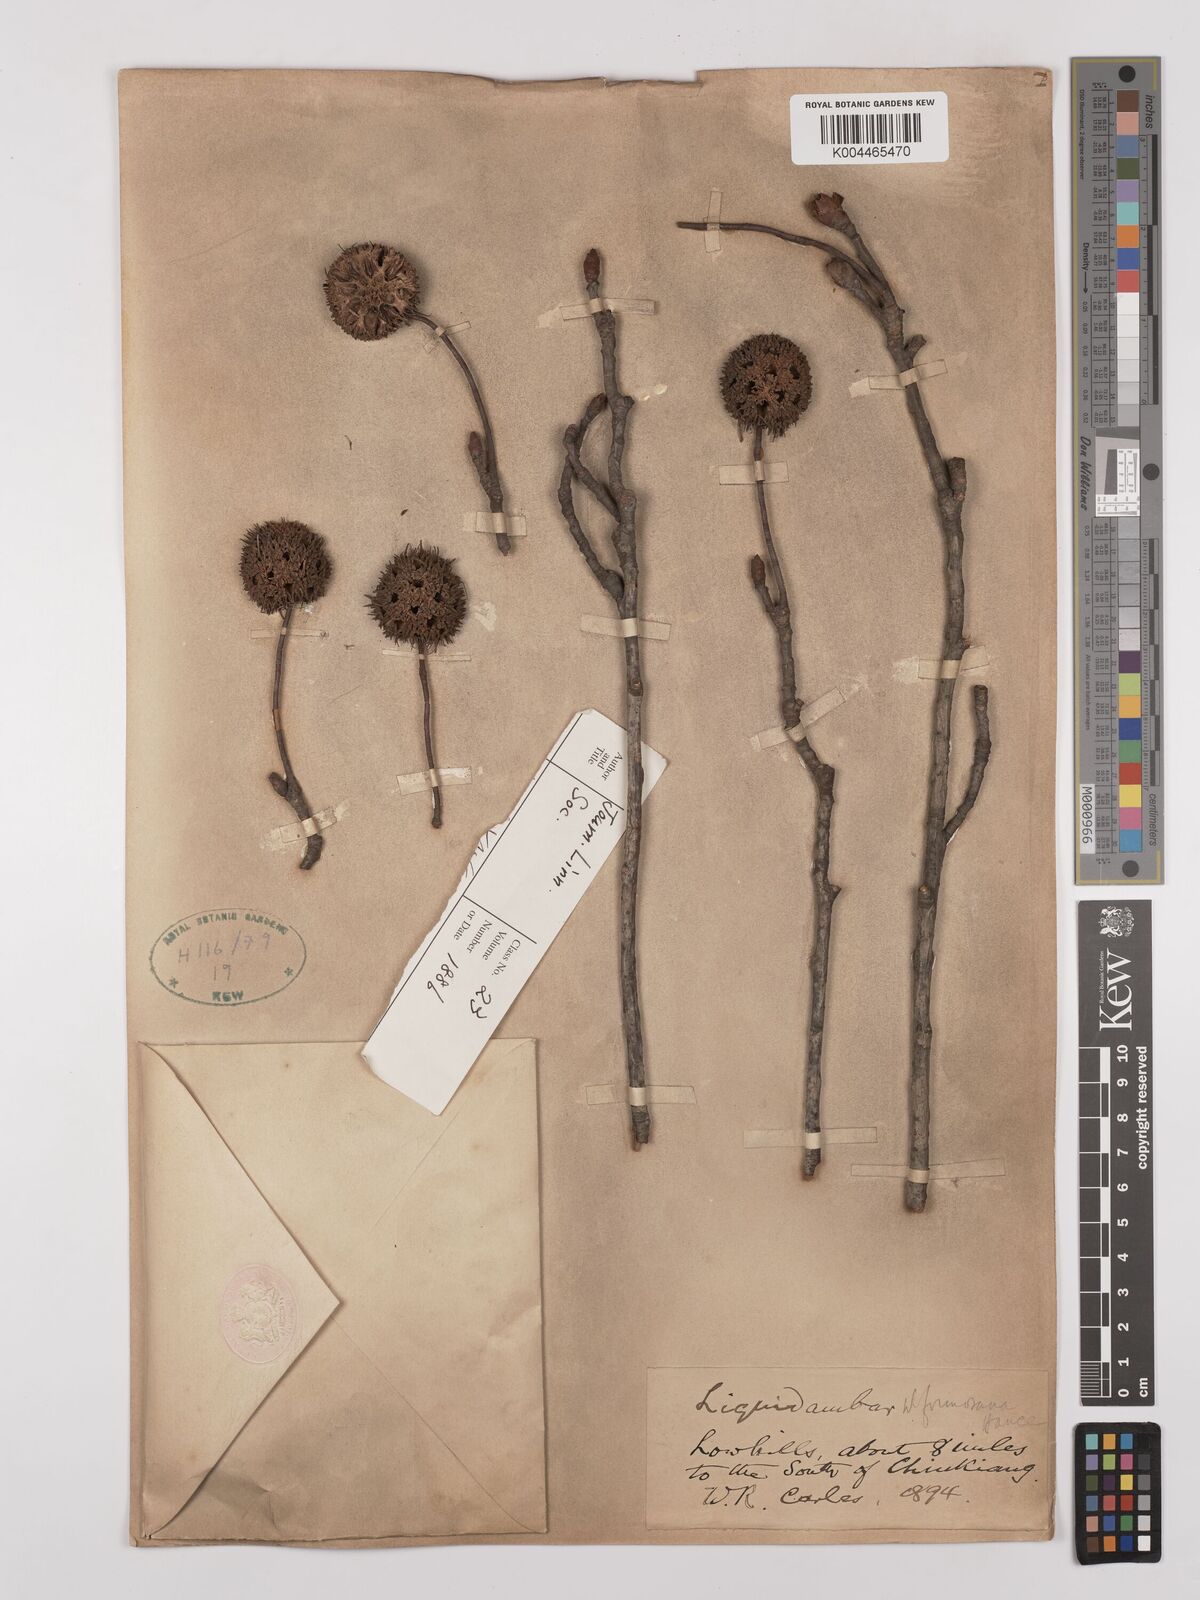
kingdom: Plantae
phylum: Tracheophyta
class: Magnoliopsida
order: Saxifragales
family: Altingiaceae
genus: Liquidambar
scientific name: Liquidambar formosana
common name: Chinese sweet gum
